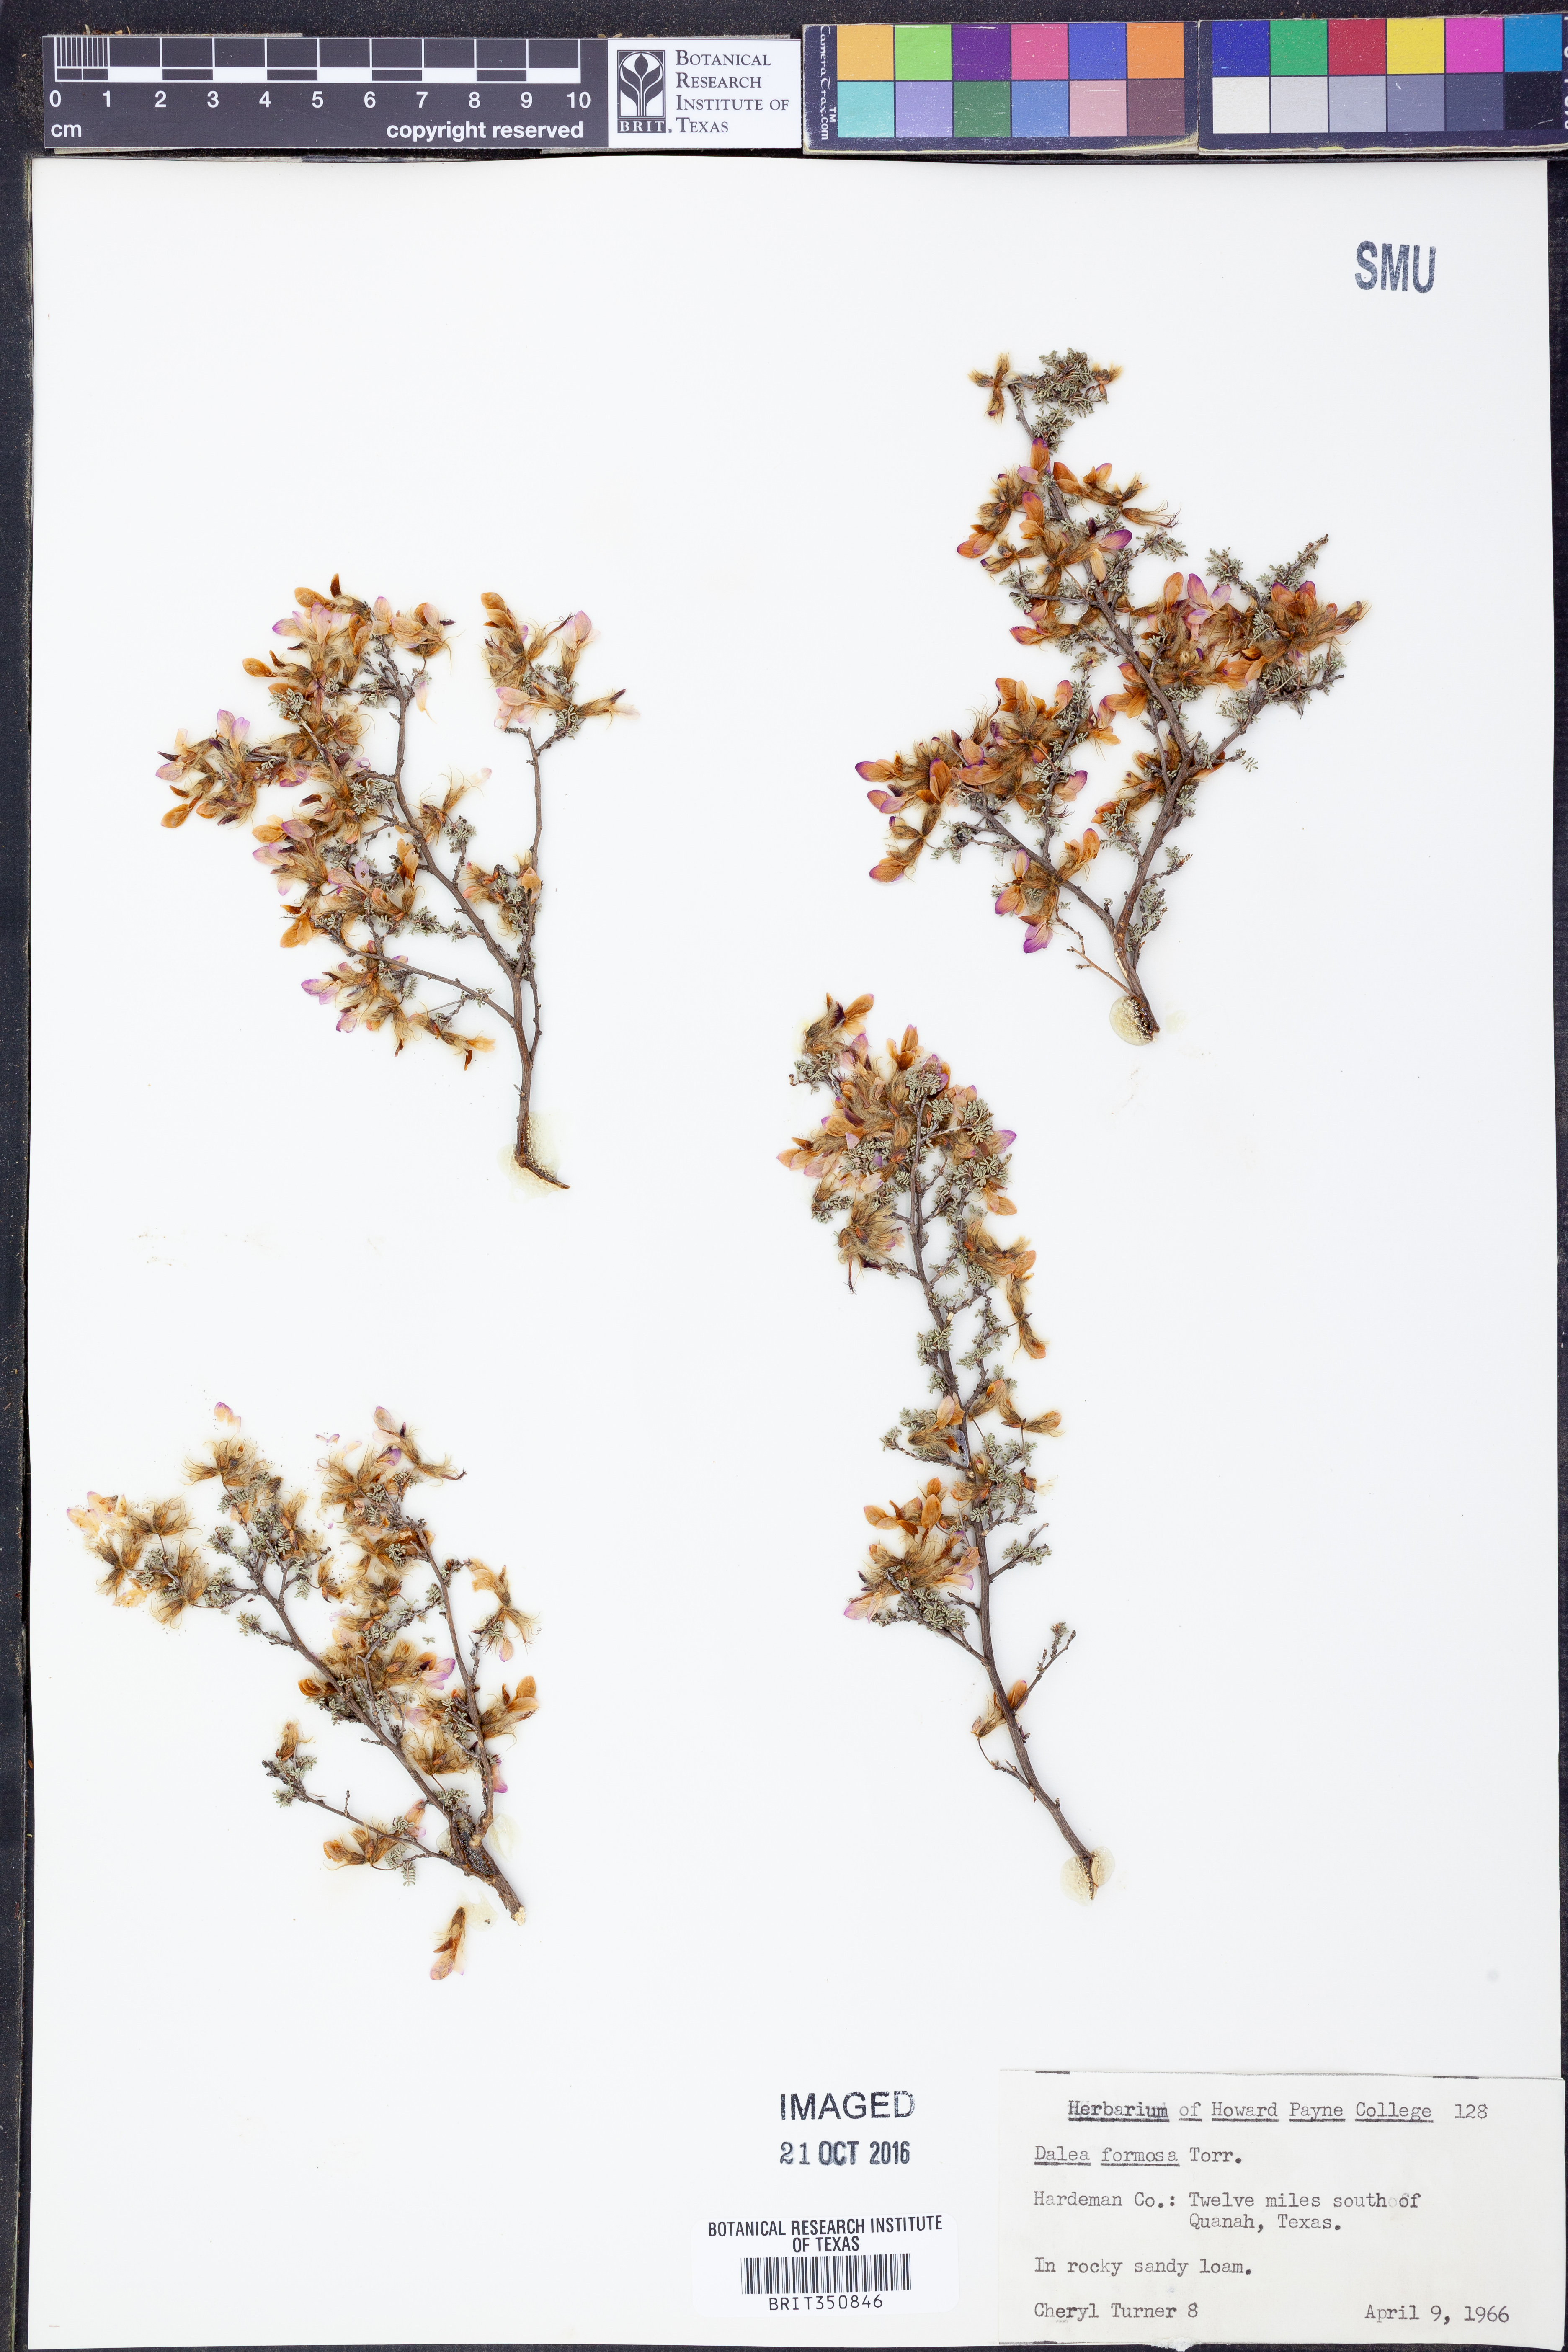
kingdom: Plantae
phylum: Tracheophyta
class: Magnoliopsida
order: Fabales
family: Fabaceae
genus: Dalea
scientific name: Dalea formosa
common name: Feather-plume dalea
